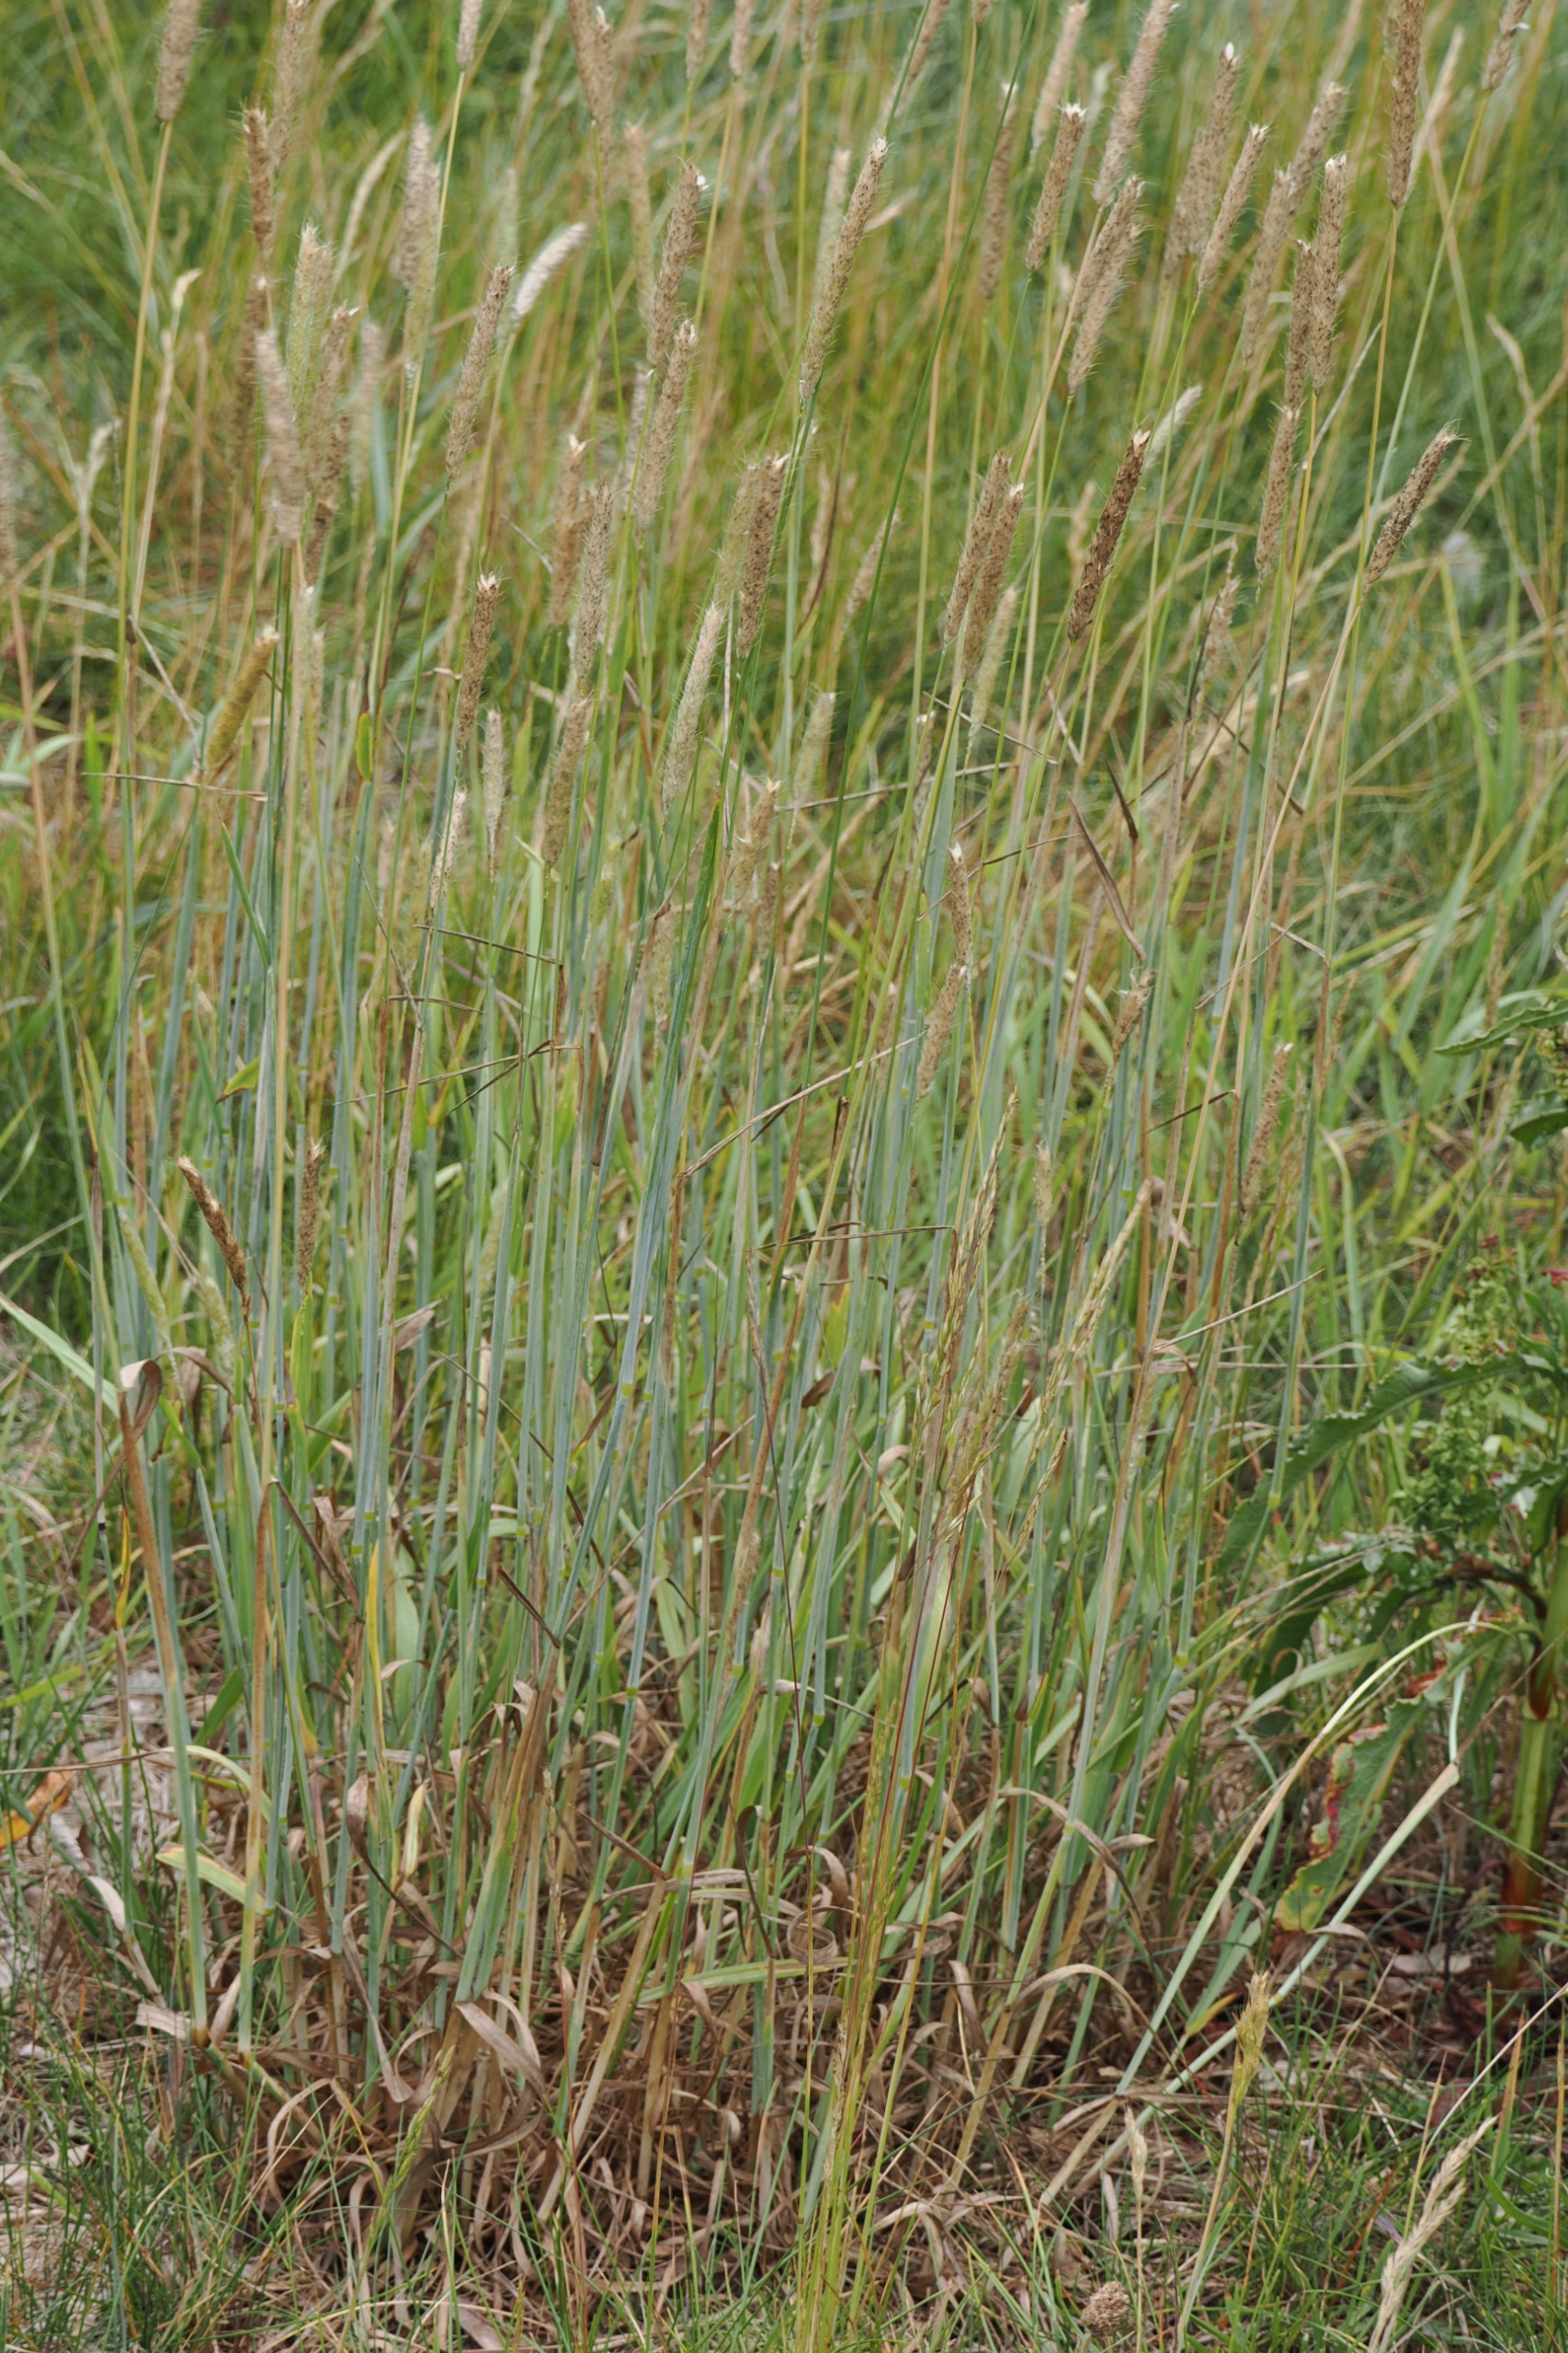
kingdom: Plantae
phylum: Tracheophyta
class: Liliopsida
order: Poales
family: Poaceae
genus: Alopecurus
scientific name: Alopecurus pratensis
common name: Eng-rævehale
